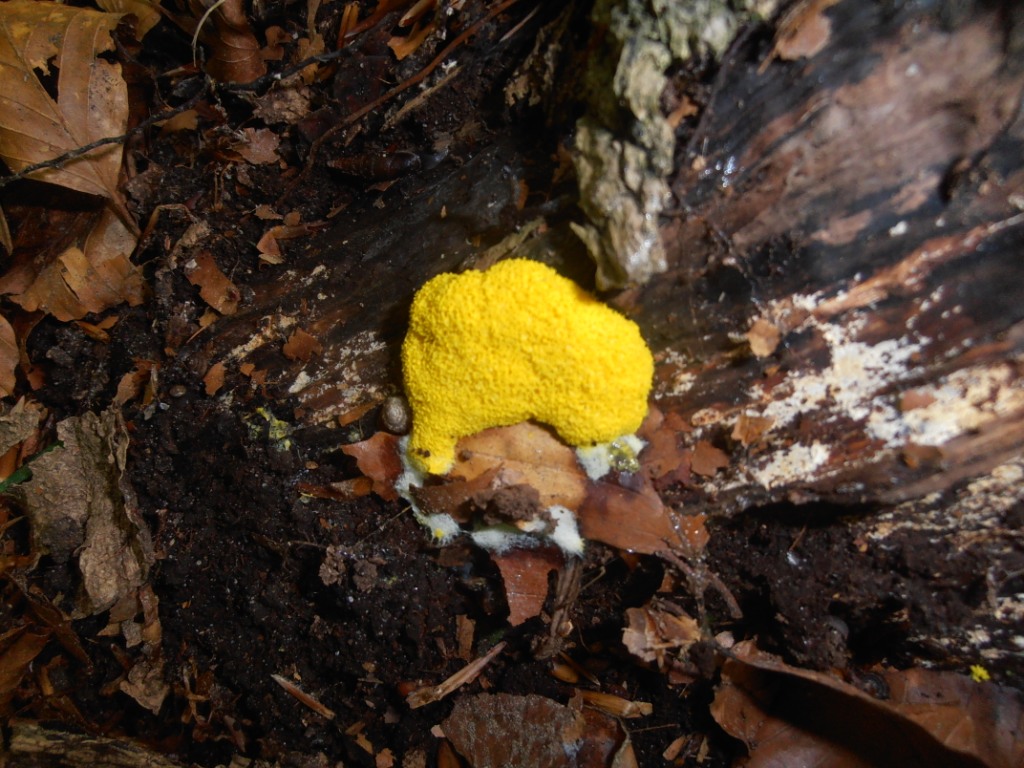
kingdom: Protozoa
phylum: Mycetozoa
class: Myxomycetes
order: Physarales
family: Physaraceae
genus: Fuligo
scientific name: Fuligo septica
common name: gul troldsmør
